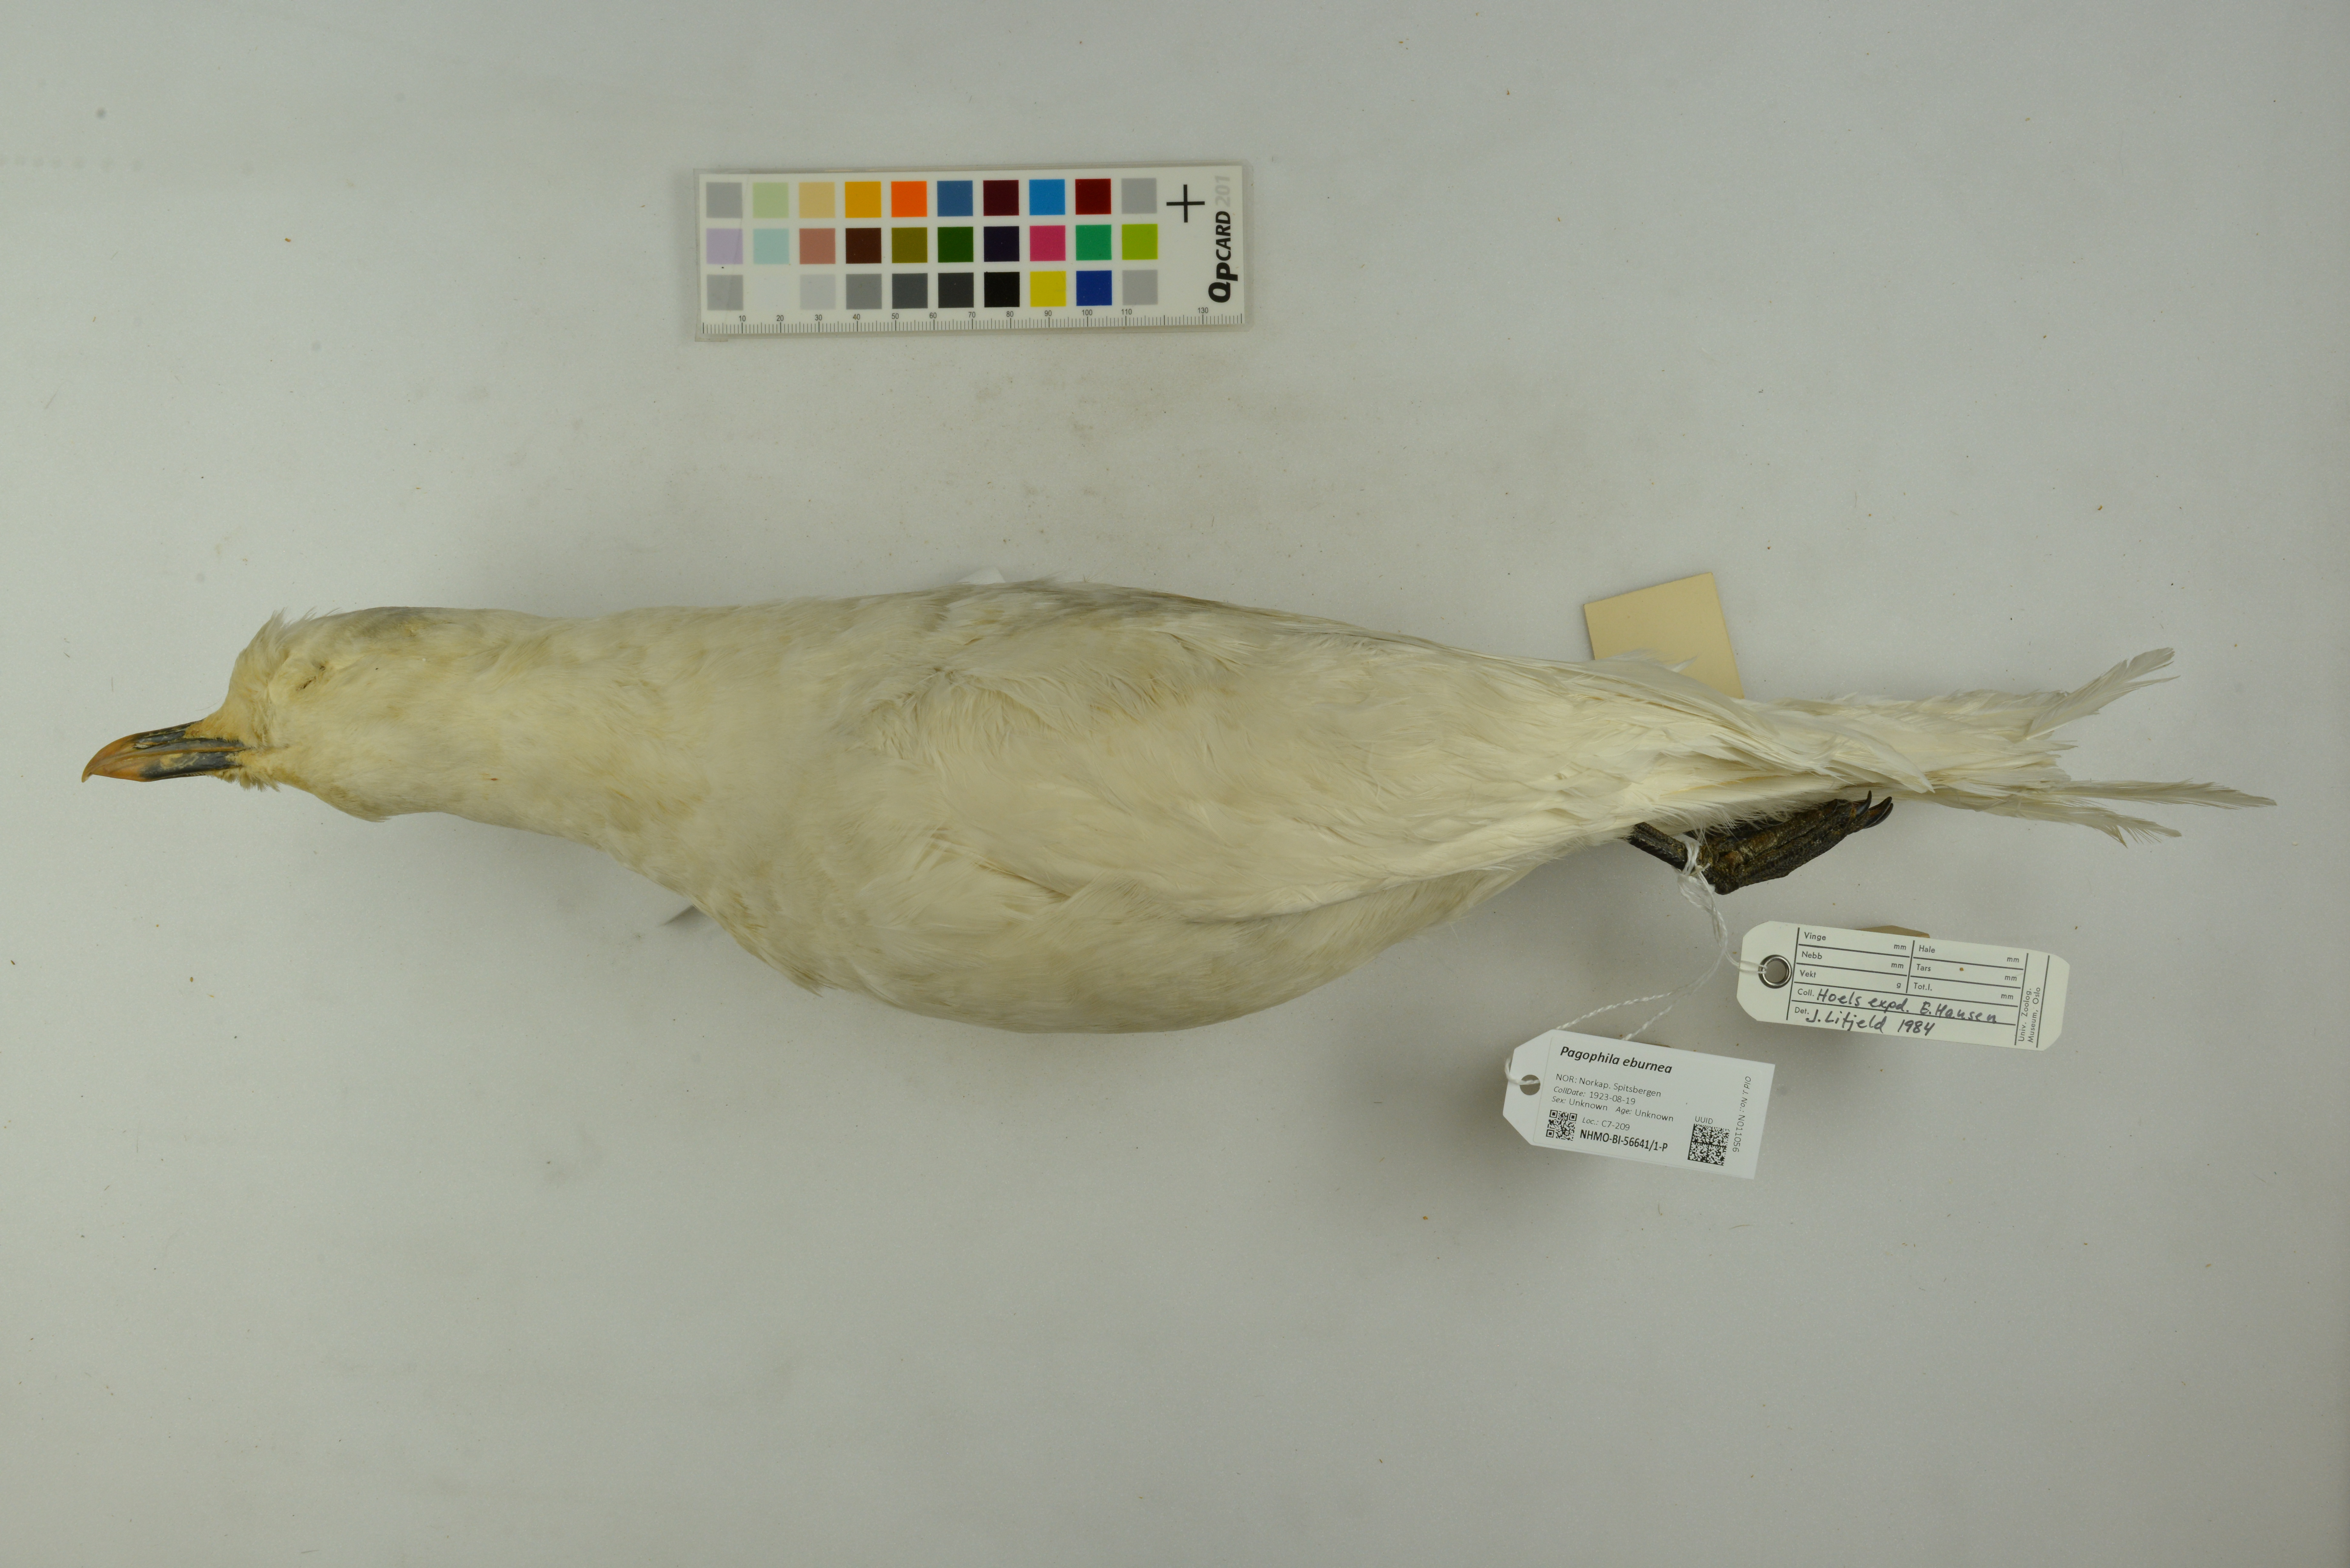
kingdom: Animalia
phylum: Chordata
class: Aves
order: Charadriiformes
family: Laridae
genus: Pagophila
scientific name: Pagophila eburnea
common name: Ivory gull
